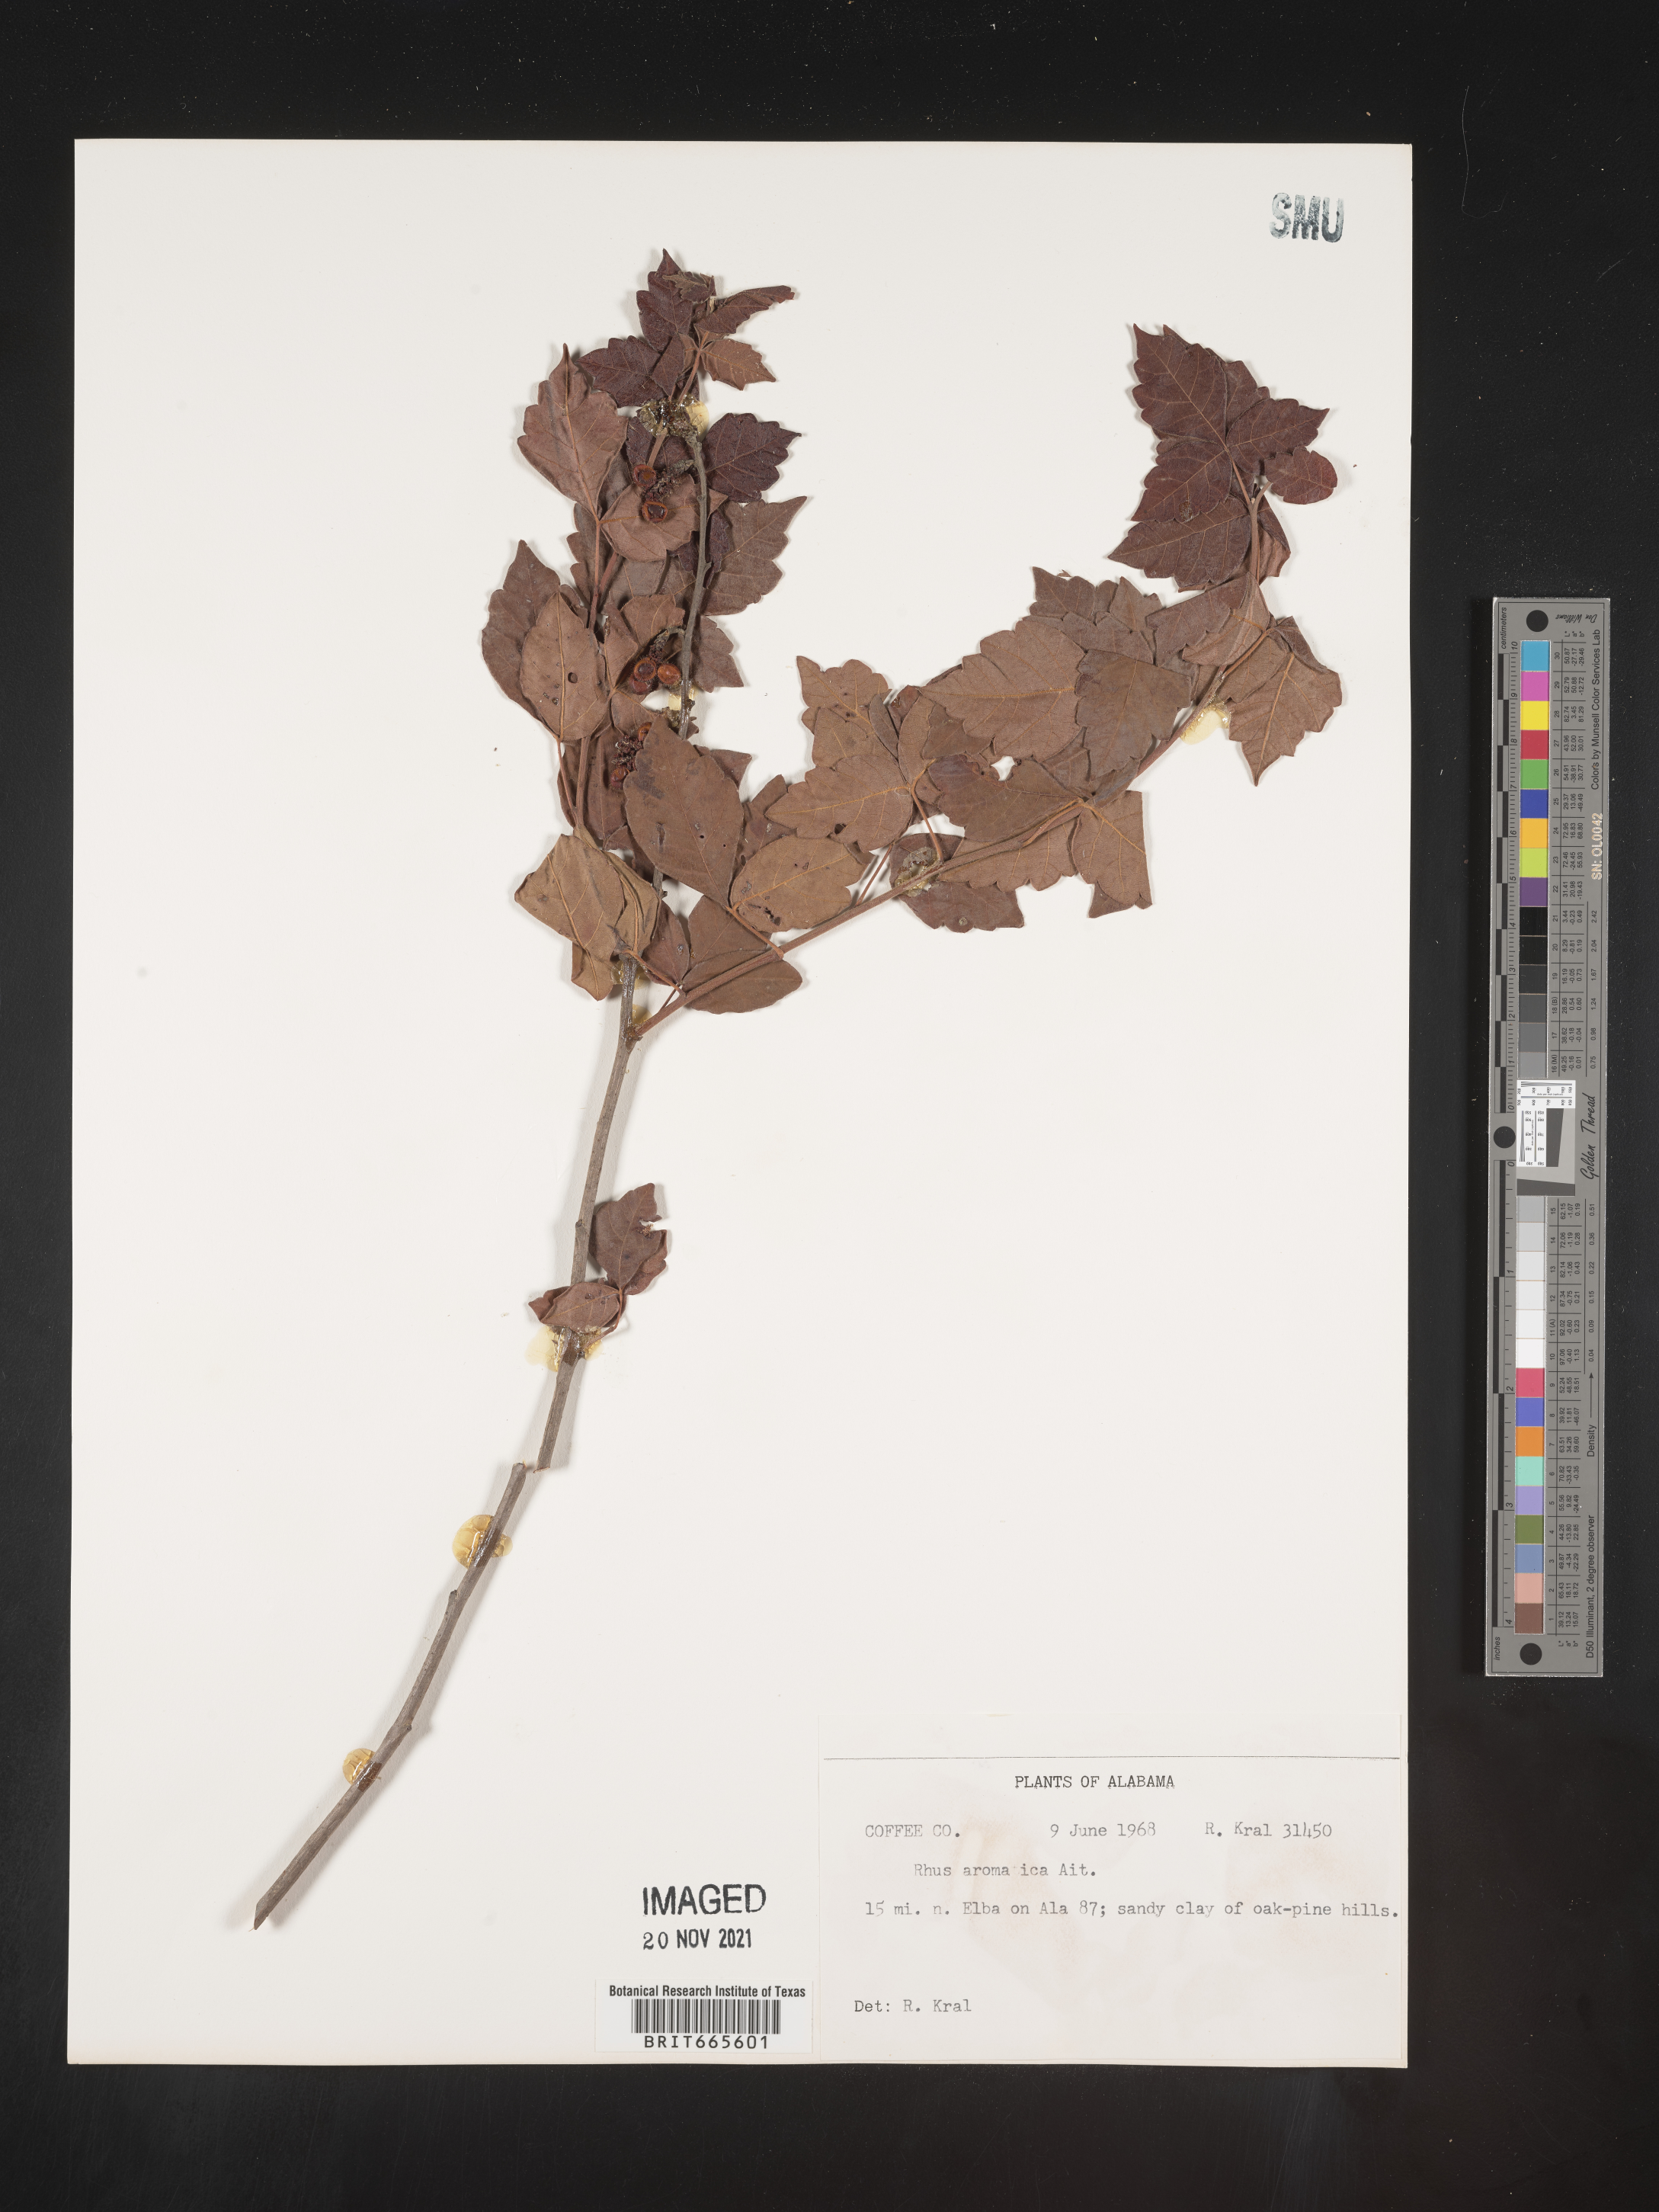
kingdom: Plantae
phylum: Tracheophyta
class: Magnoliopsida
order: Sapindales
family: Anacardiaceae
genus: Rhus
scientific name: Rhus aromatica
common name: Aromatic sumac
